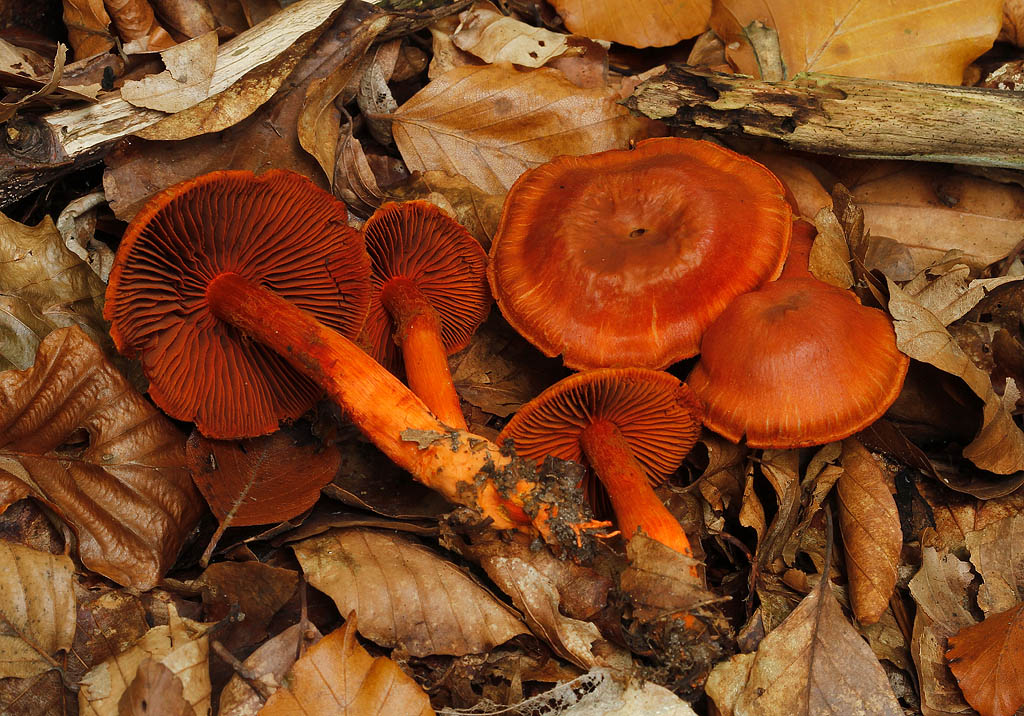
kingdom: Fungi
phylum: Basidiomycota
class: Agaricomycetes
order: Agaricales
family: Cortinariaceae
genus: Cortinarius
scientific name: Cortinarius cinnabarinus
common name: cinnober-slørhat
